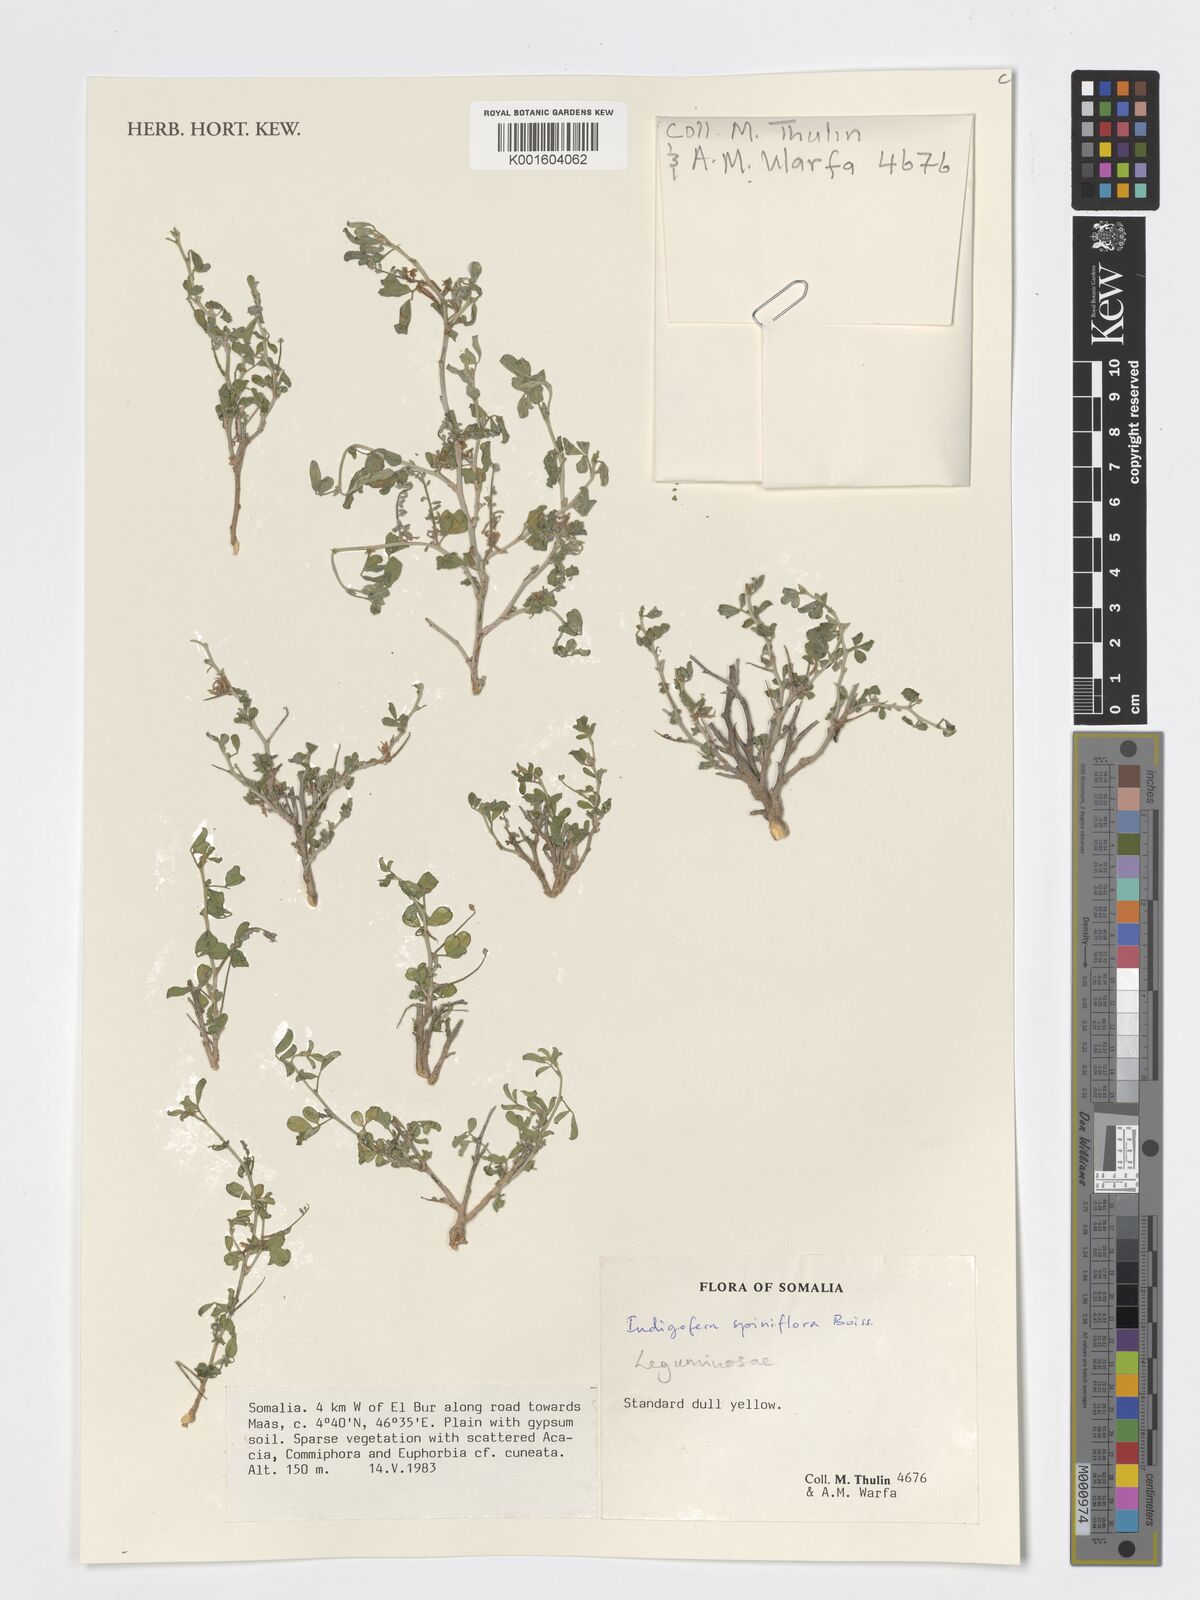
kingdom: Plantae
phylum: Tracheophyta
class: Magnoliopsida
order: Fabales
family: Fabaceae
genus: Indigofera
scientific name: Indigofera spiniflora
